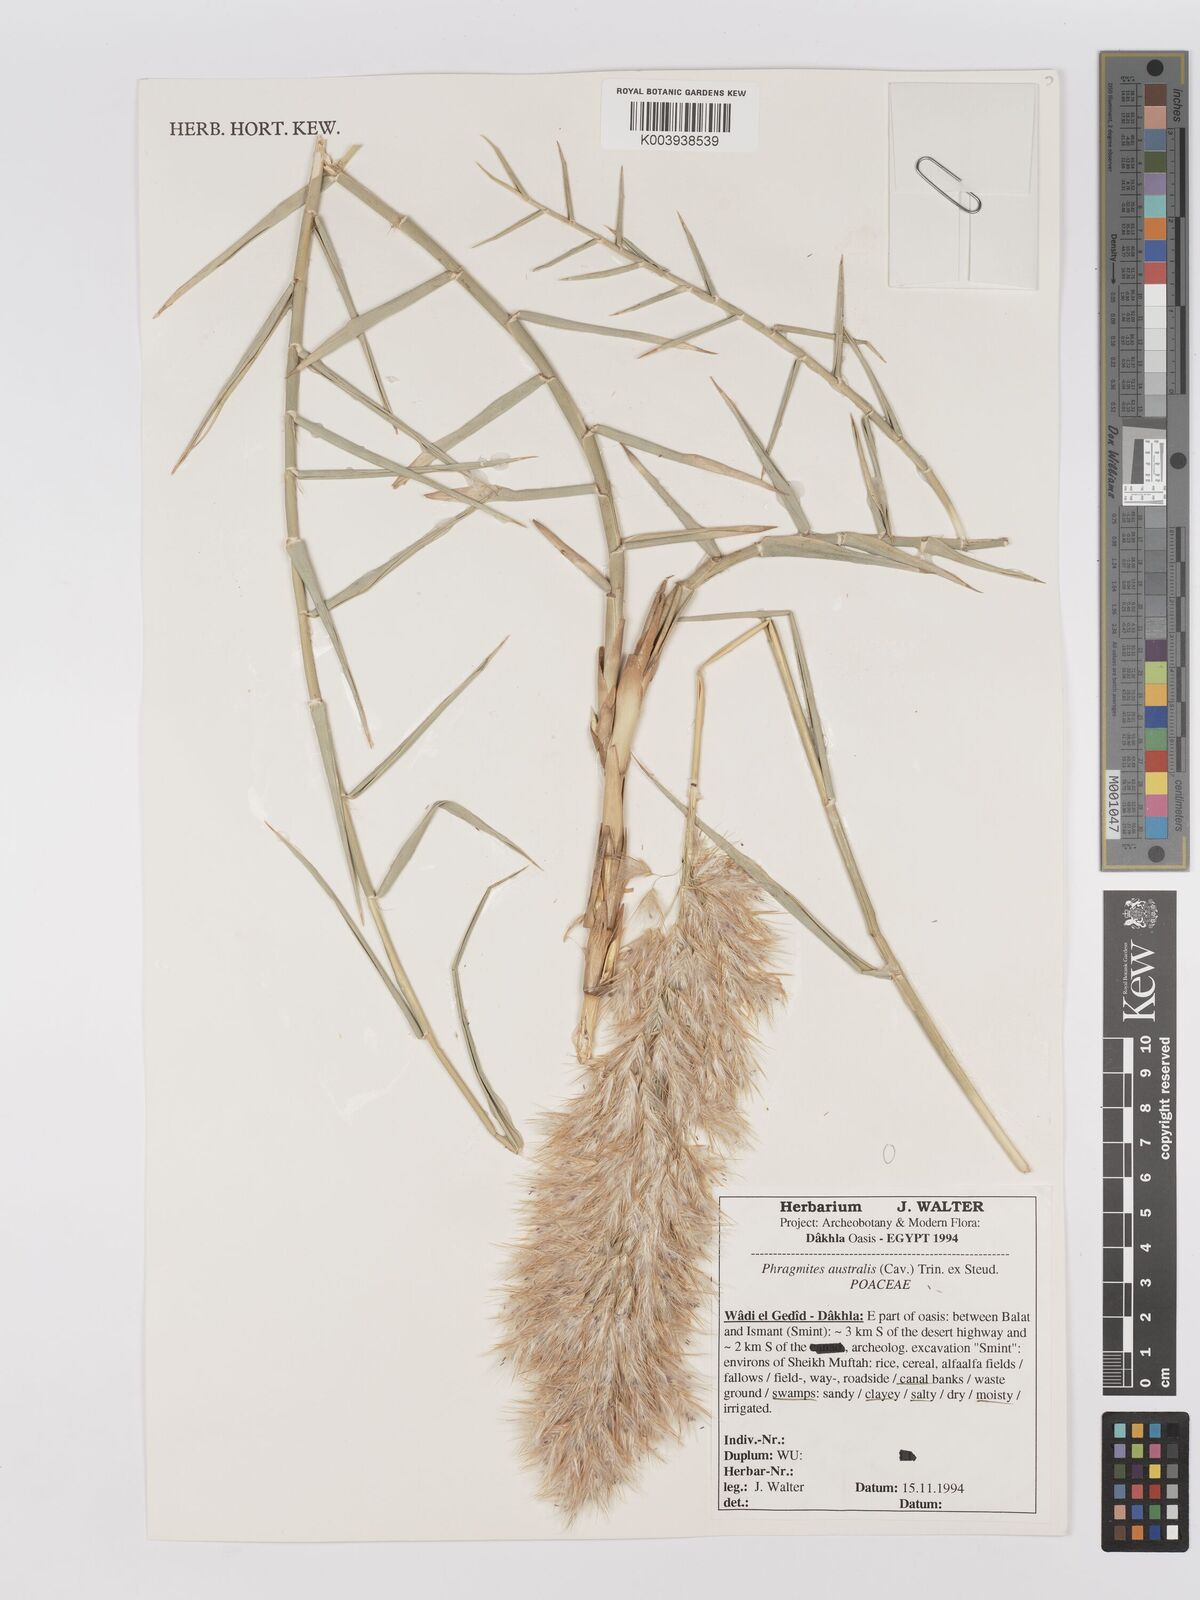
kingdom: Plantae
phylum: Tracheophyta
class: Liliopsida
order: Poales
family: Poaceae
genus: Phragmites
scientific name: Phragmites australis
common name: Common reed
